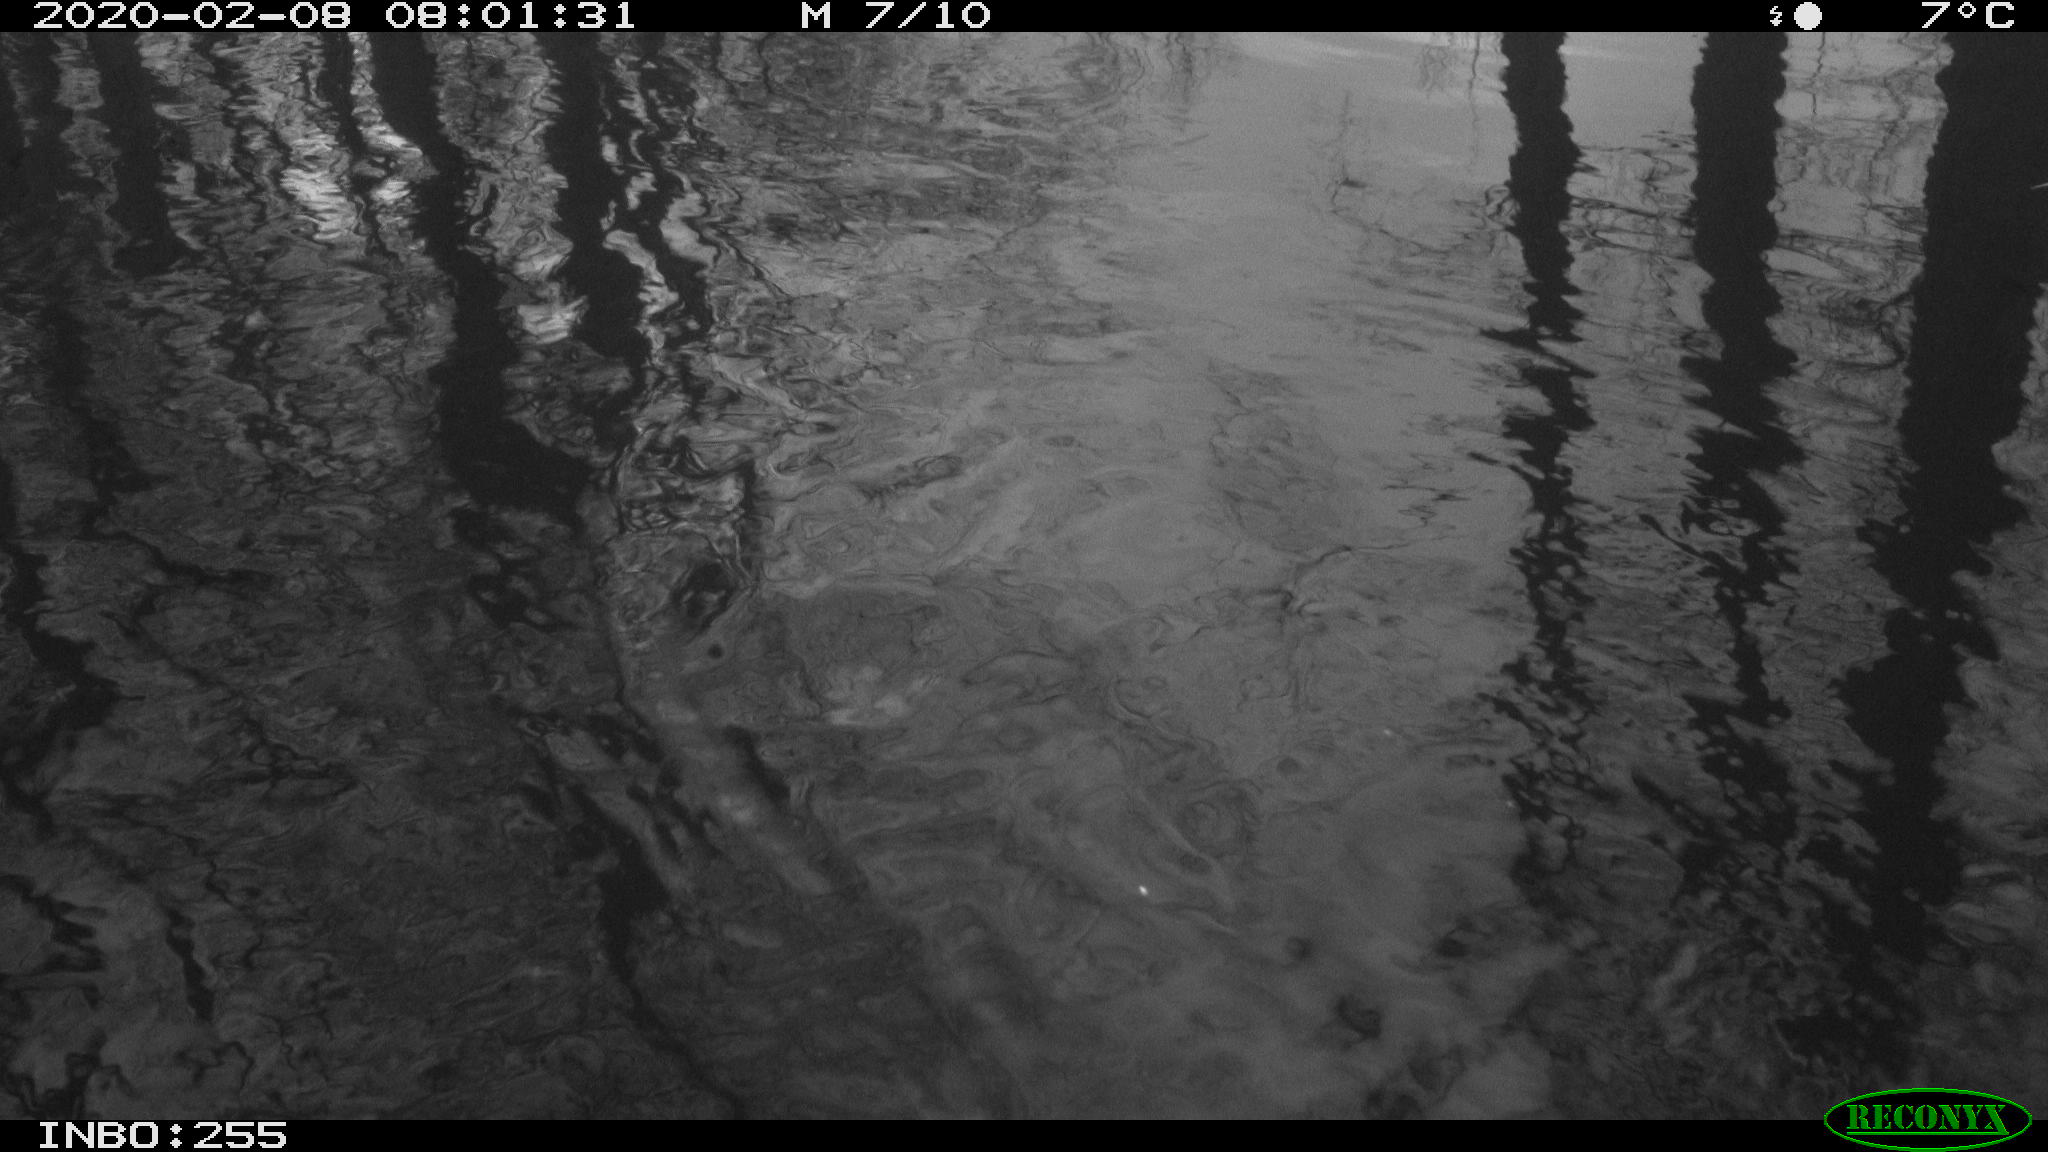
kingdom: Animalia
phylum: Chordata
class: Aves
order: Gruiformes
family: Rallidae
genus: Fulica
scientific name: Fulica atra
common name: Eurasian coot
